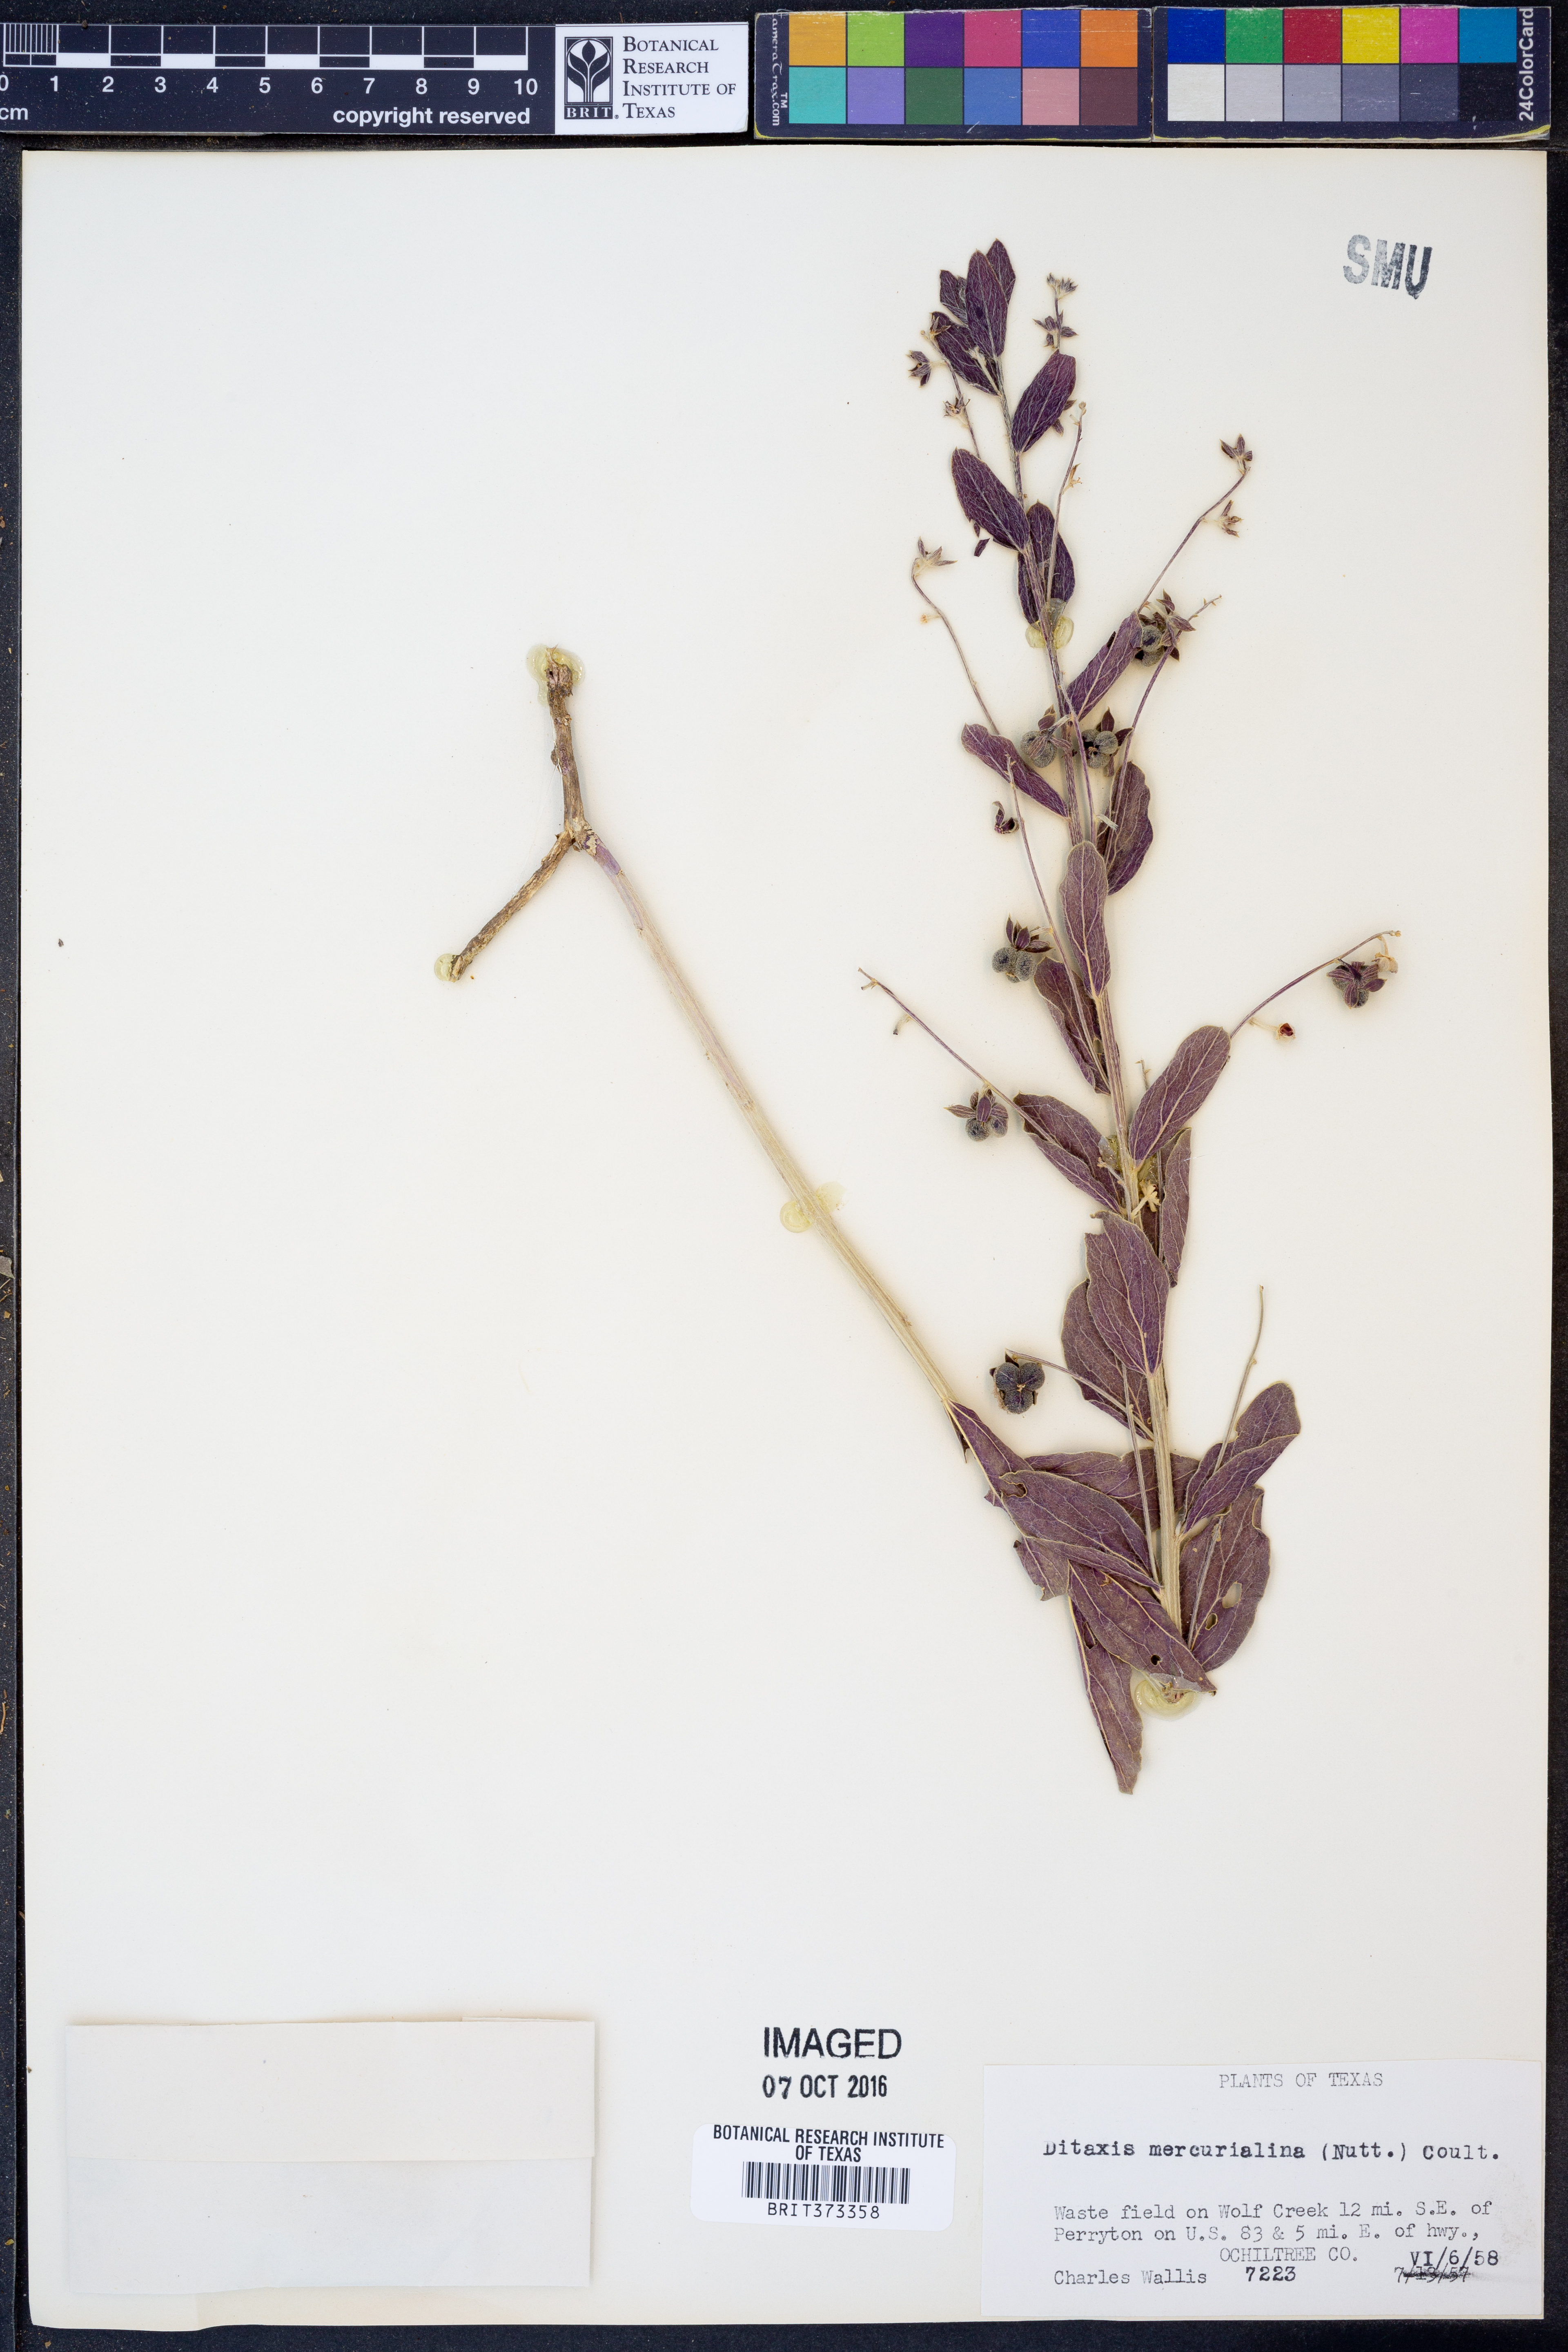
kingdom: Plantae
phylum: Tracheophyta
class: Magnoliopsida
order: Malpighiales
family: Euphorbiaceae
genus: Ditaxis
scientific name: Ditaxis mercurialina
